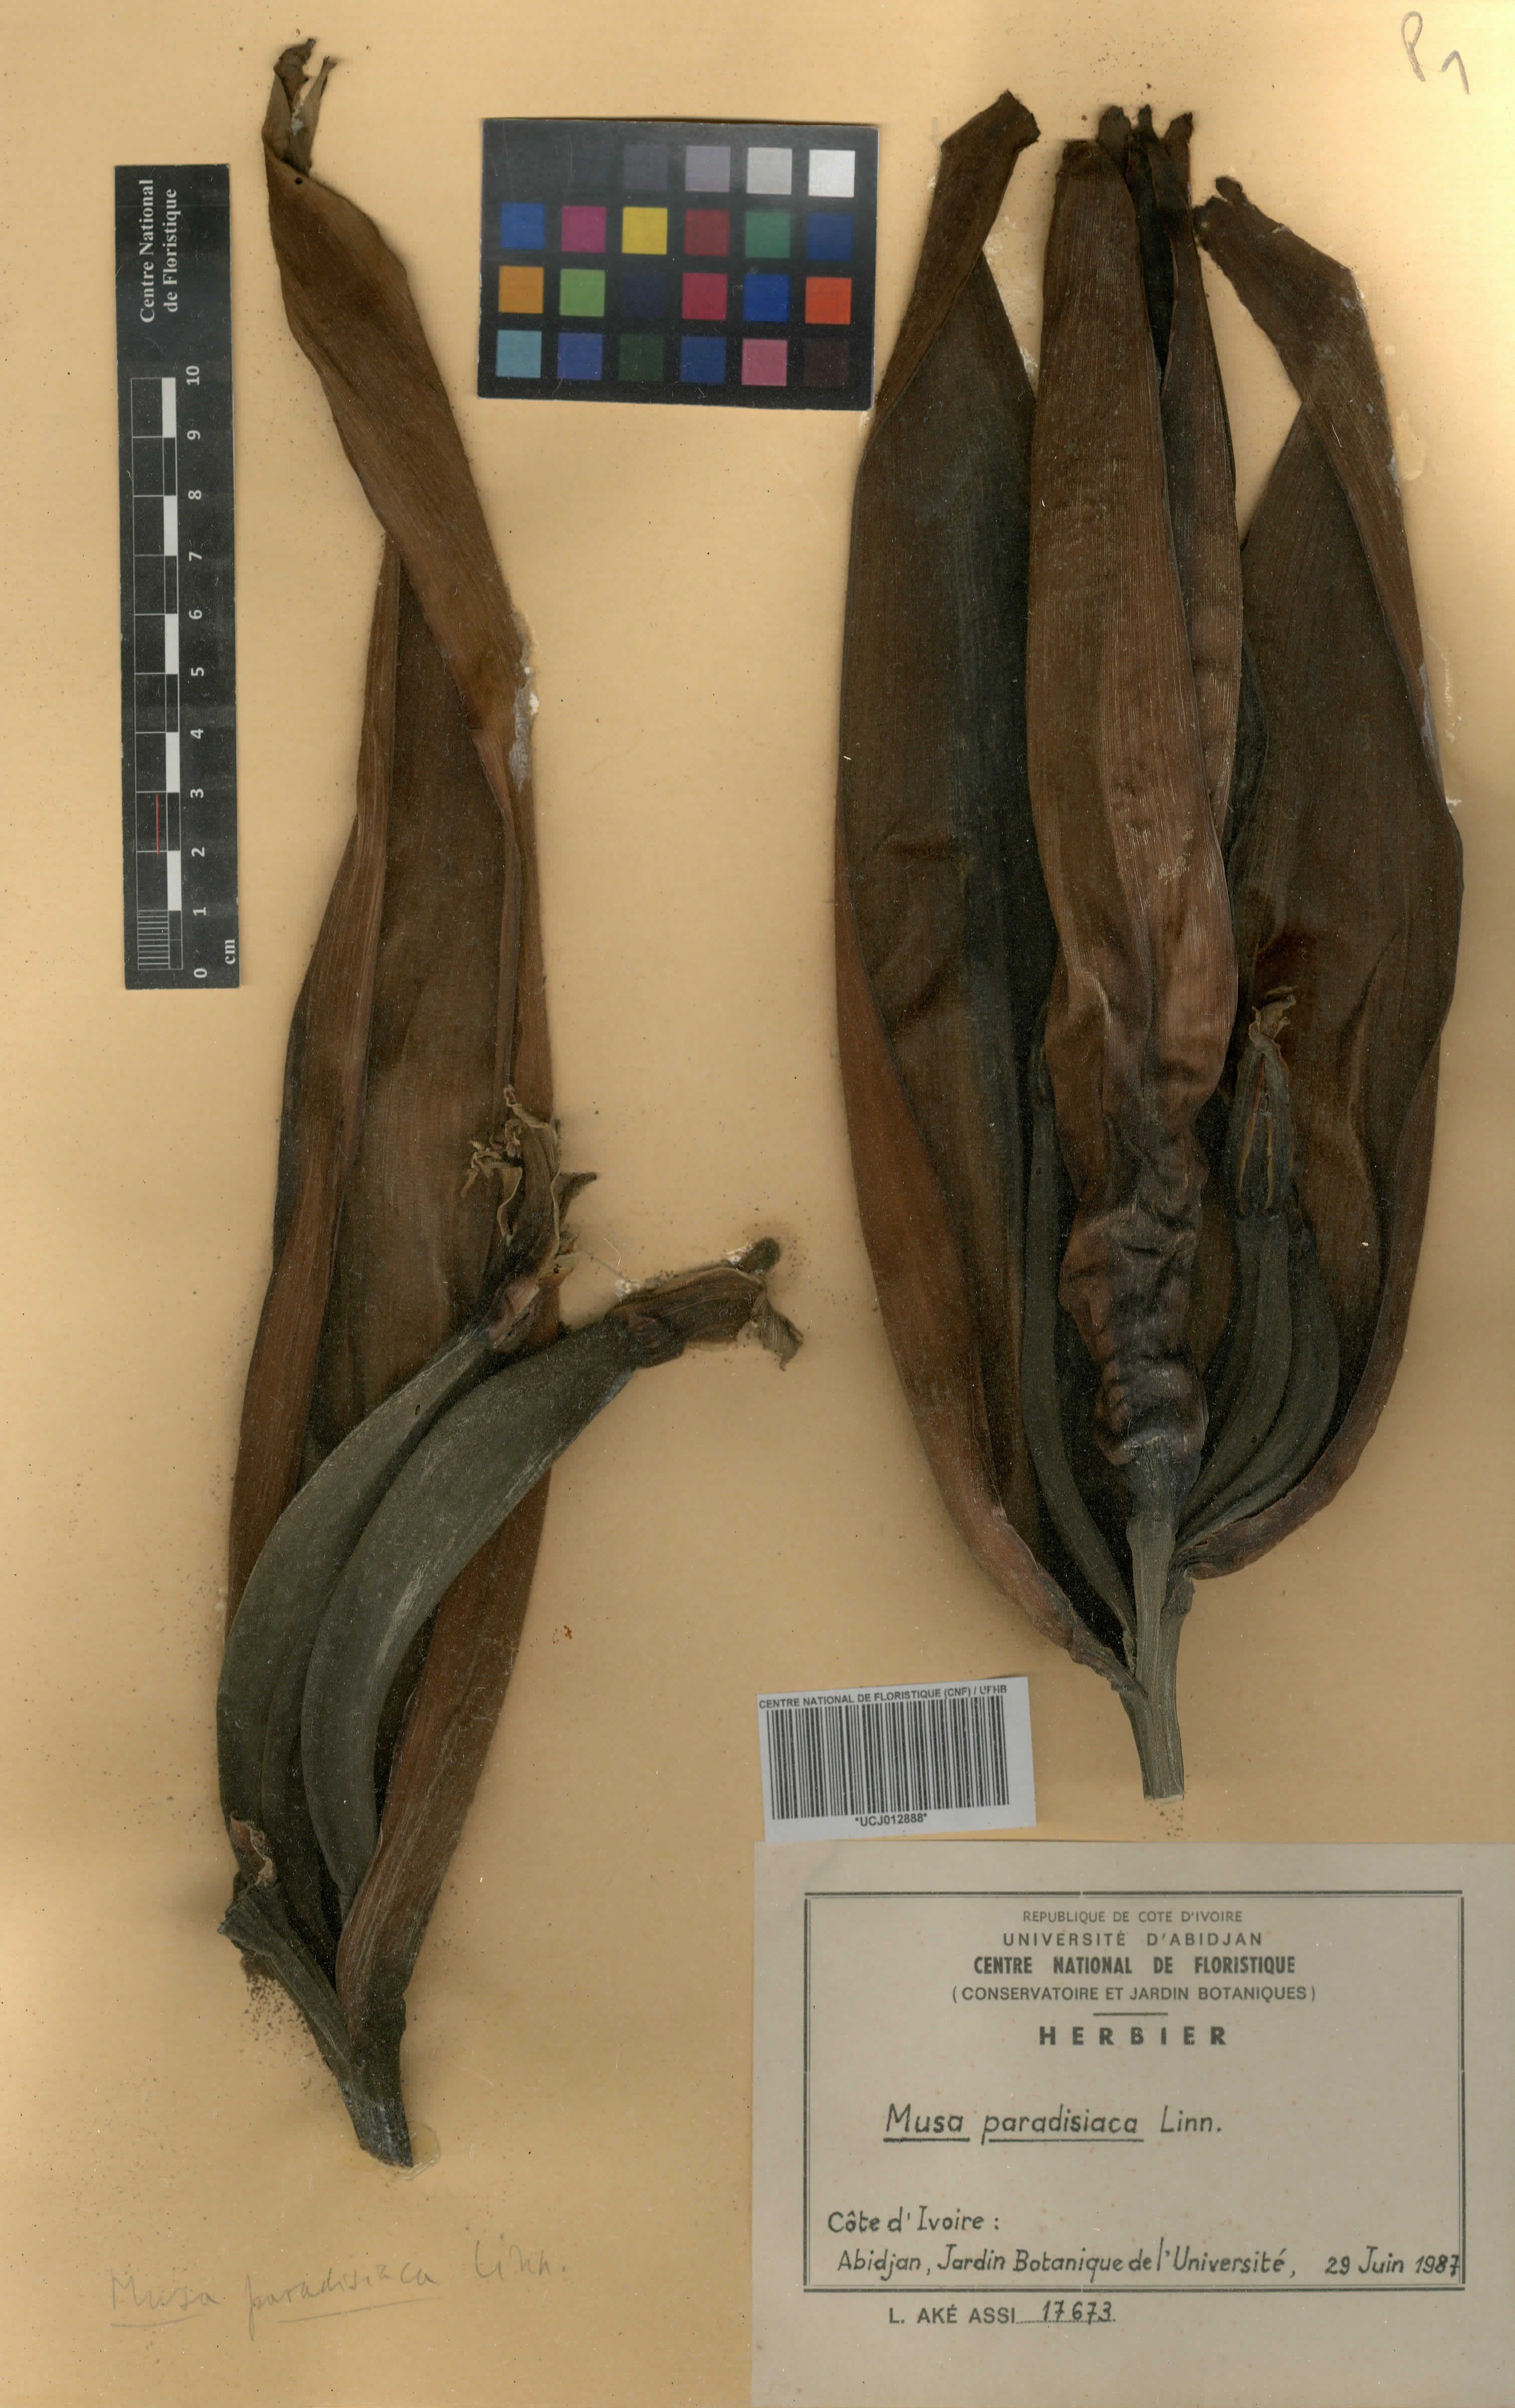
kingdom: Plantae
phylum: Tracheophyta
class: Liliopsida
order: Zingiberales
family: Musaceae
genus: Musa
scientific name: Musa paradisiaca
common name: French plantain
